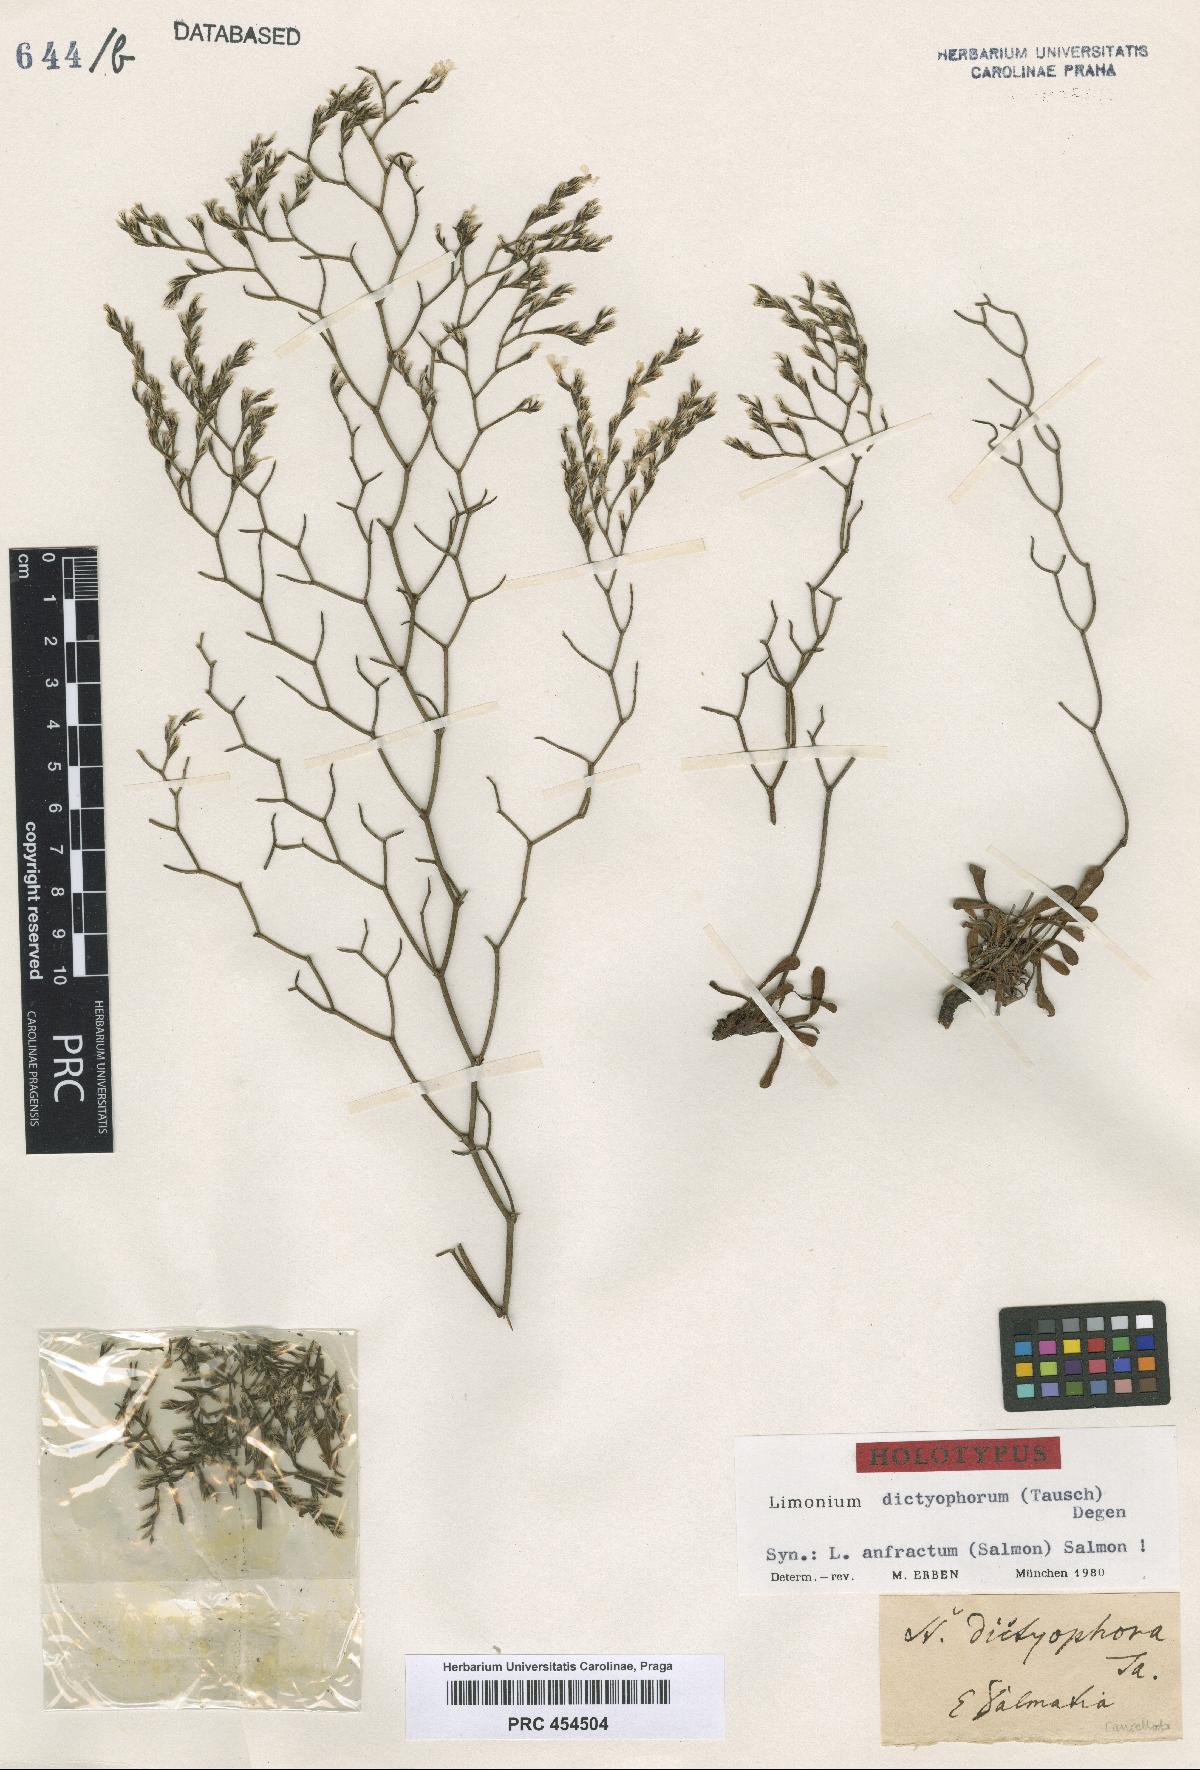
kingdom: Plantae
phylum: Tracheophyta
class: Magnoliopsida
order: Caryophyllales
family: Plumbaginaceae
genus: Limonium
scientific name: Limonium dictyophorum
